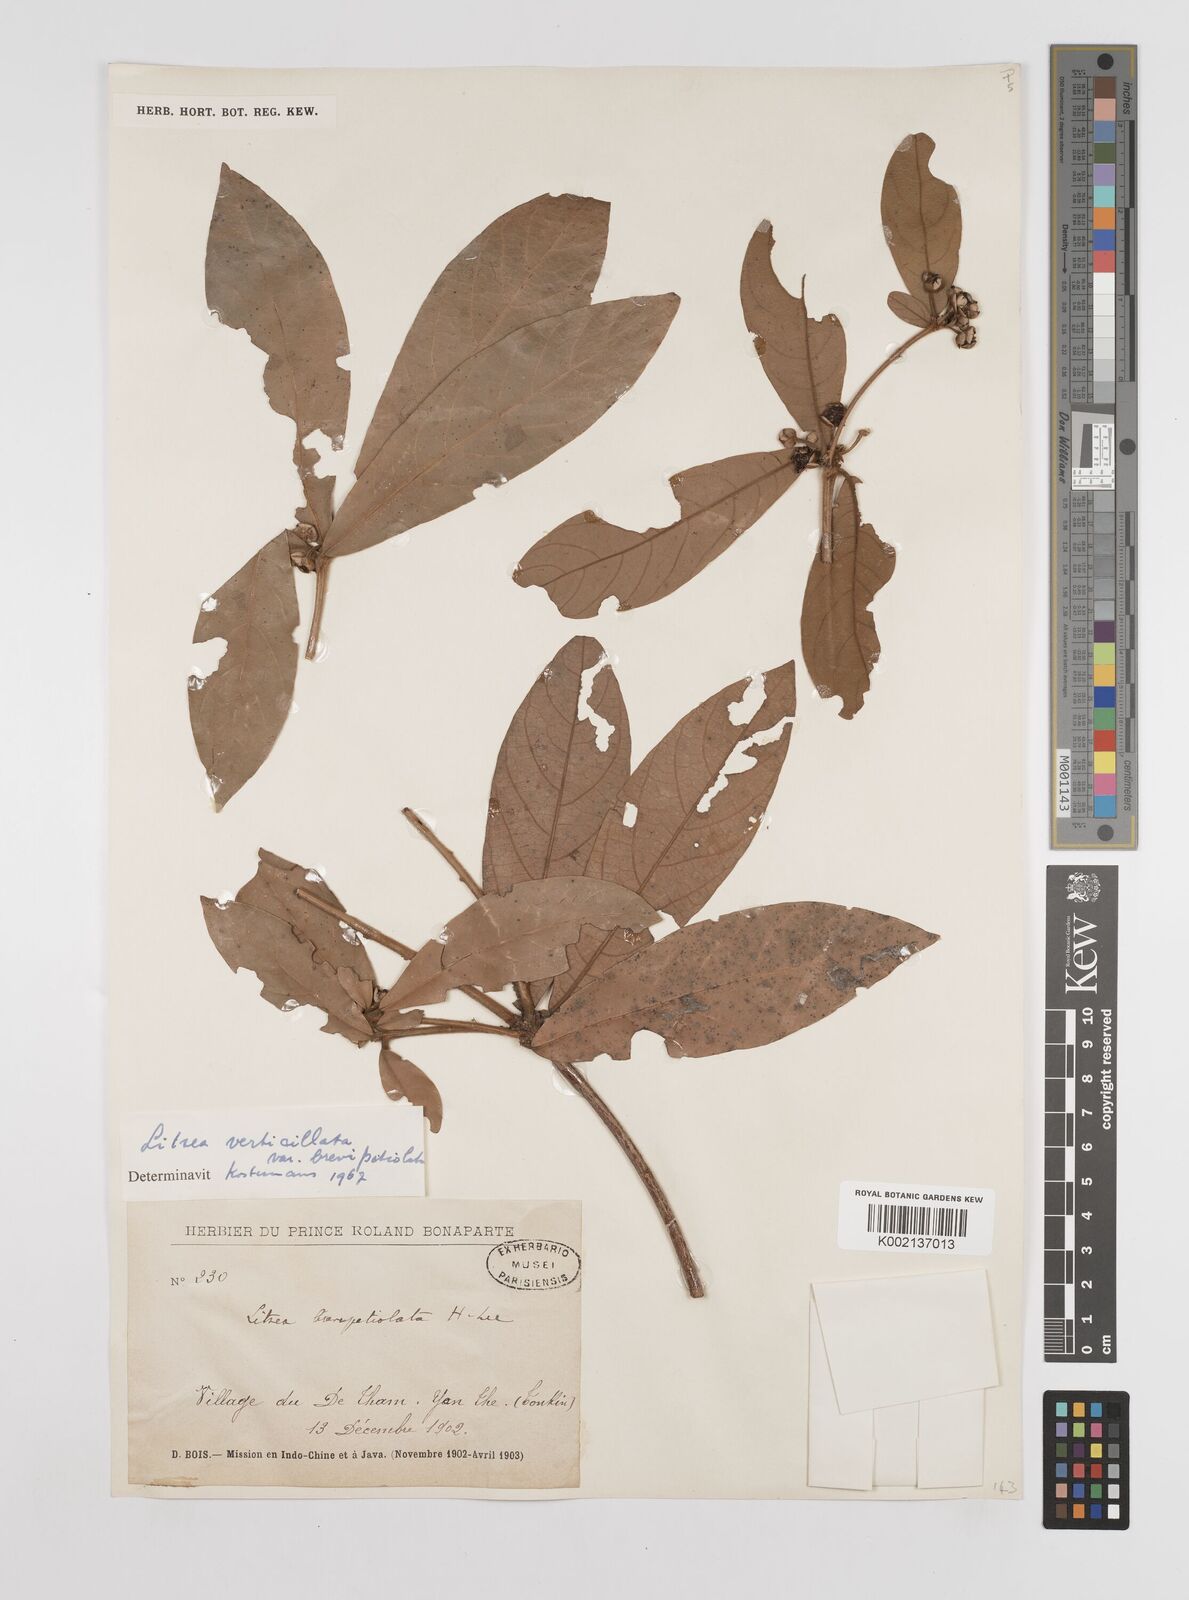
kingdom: Plantae
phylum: Tracheophyta
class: Magnoliopsida
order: Laurales
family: Lauraceae
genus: Litsea
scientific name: Litsea verticillata
